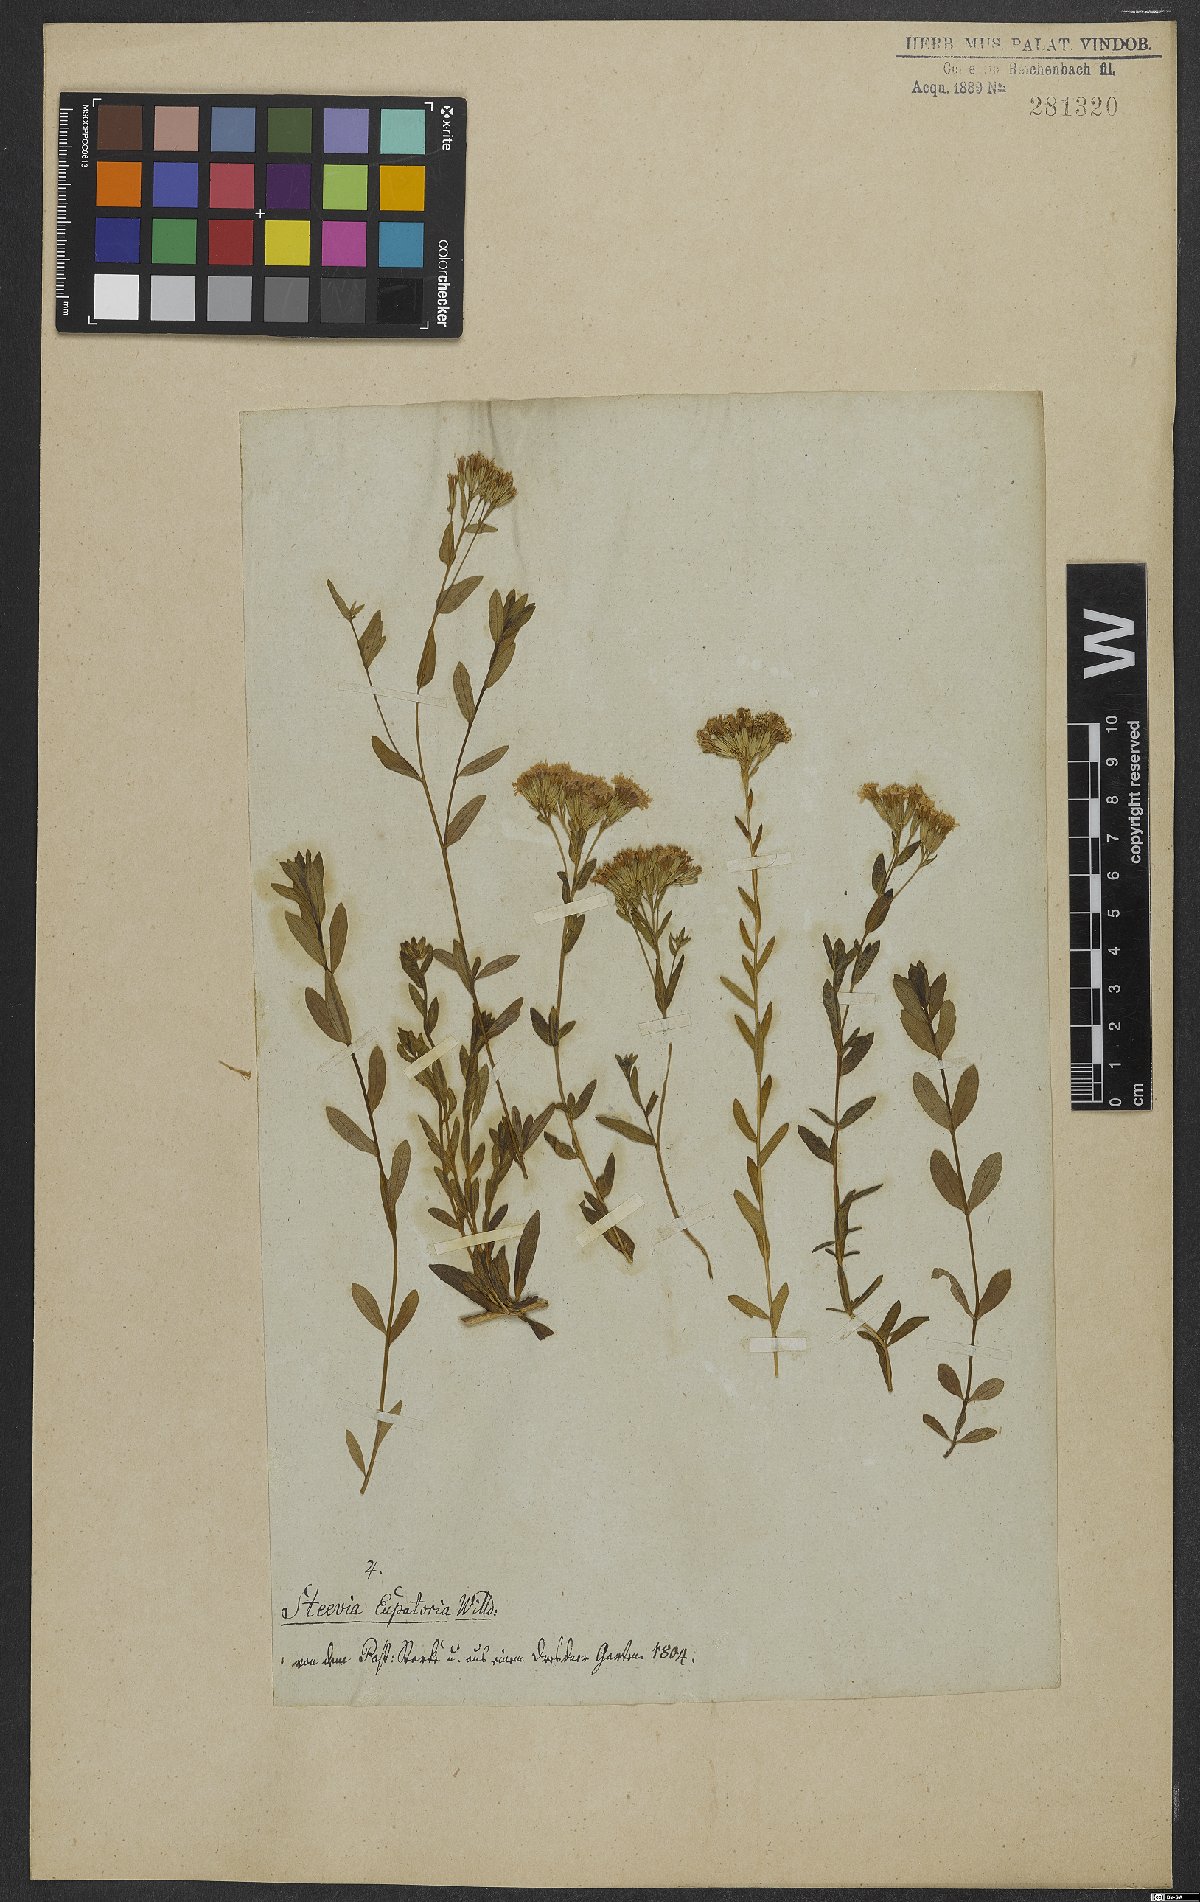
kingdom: Plantae
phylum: Tracheophyta
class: Magnoliopsida
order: Asterales
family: Asteraceae
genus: Stevia
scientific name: Stevia eupatoria
